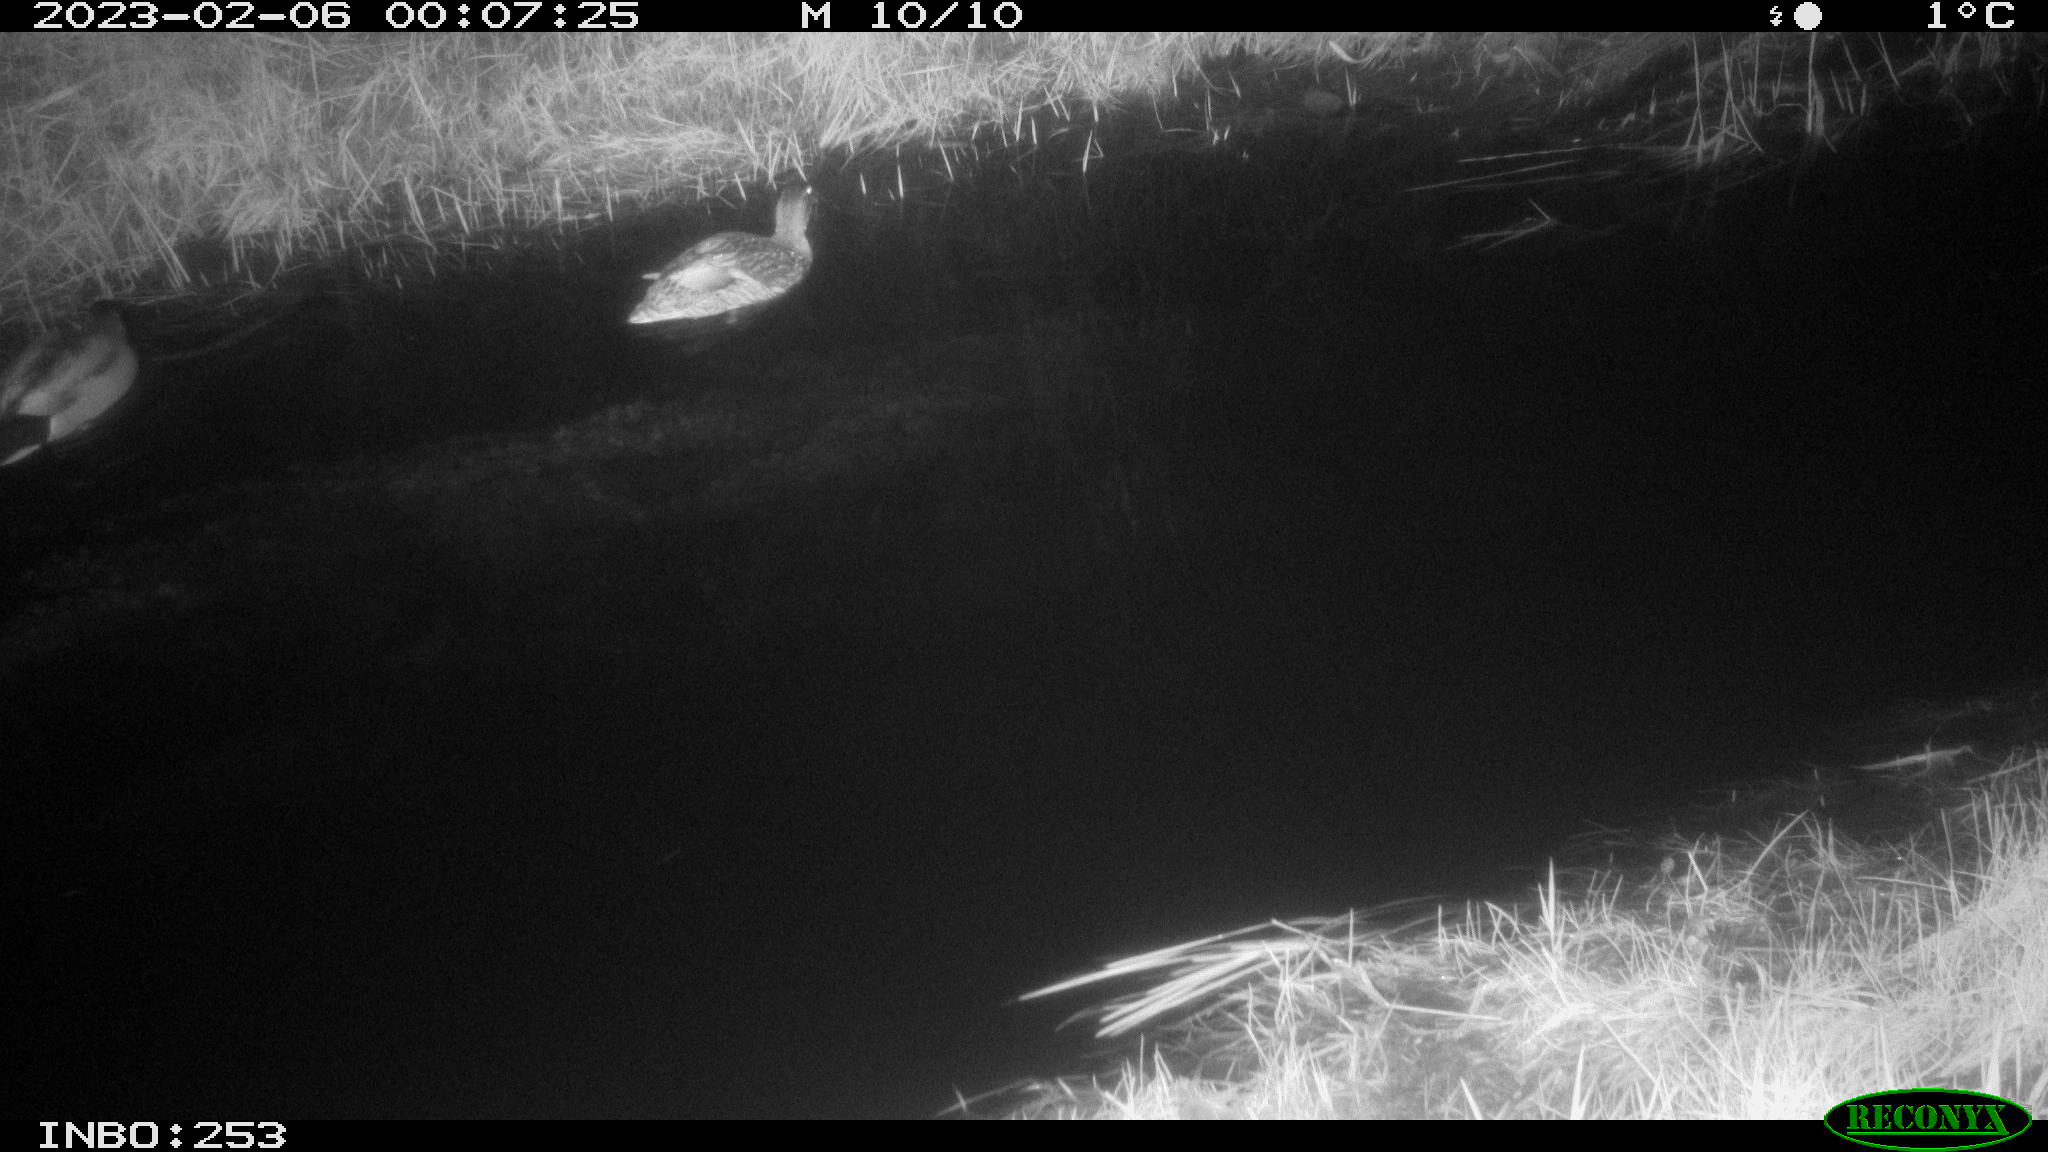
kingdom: Animalia
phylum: Chordata
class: Aves
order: Anseriformes
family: Anatidae
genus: Anas
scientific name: Anas
